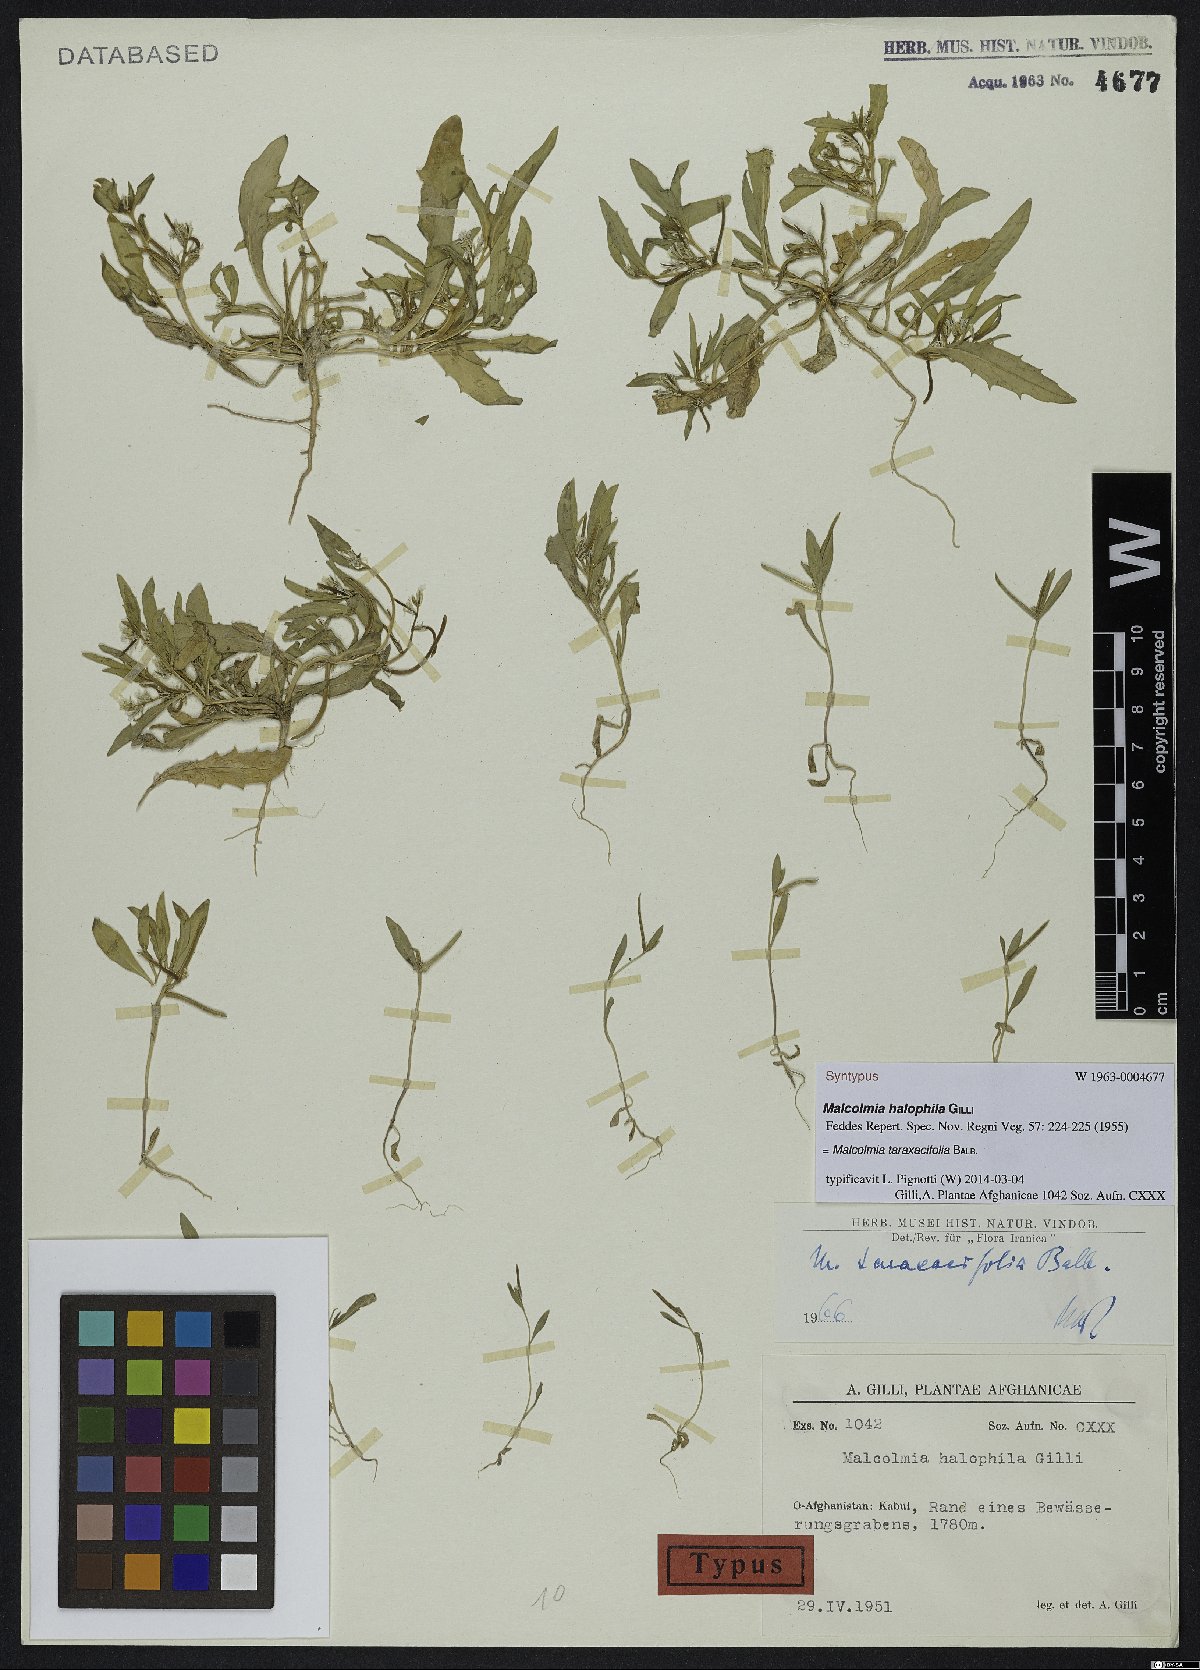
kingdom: Plantae
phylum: Tracheophyta
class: Magnoliopsida
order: Brassicales
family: Brassicaceae
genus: Strigosella
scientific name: Strigosella africana
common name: African mustard
